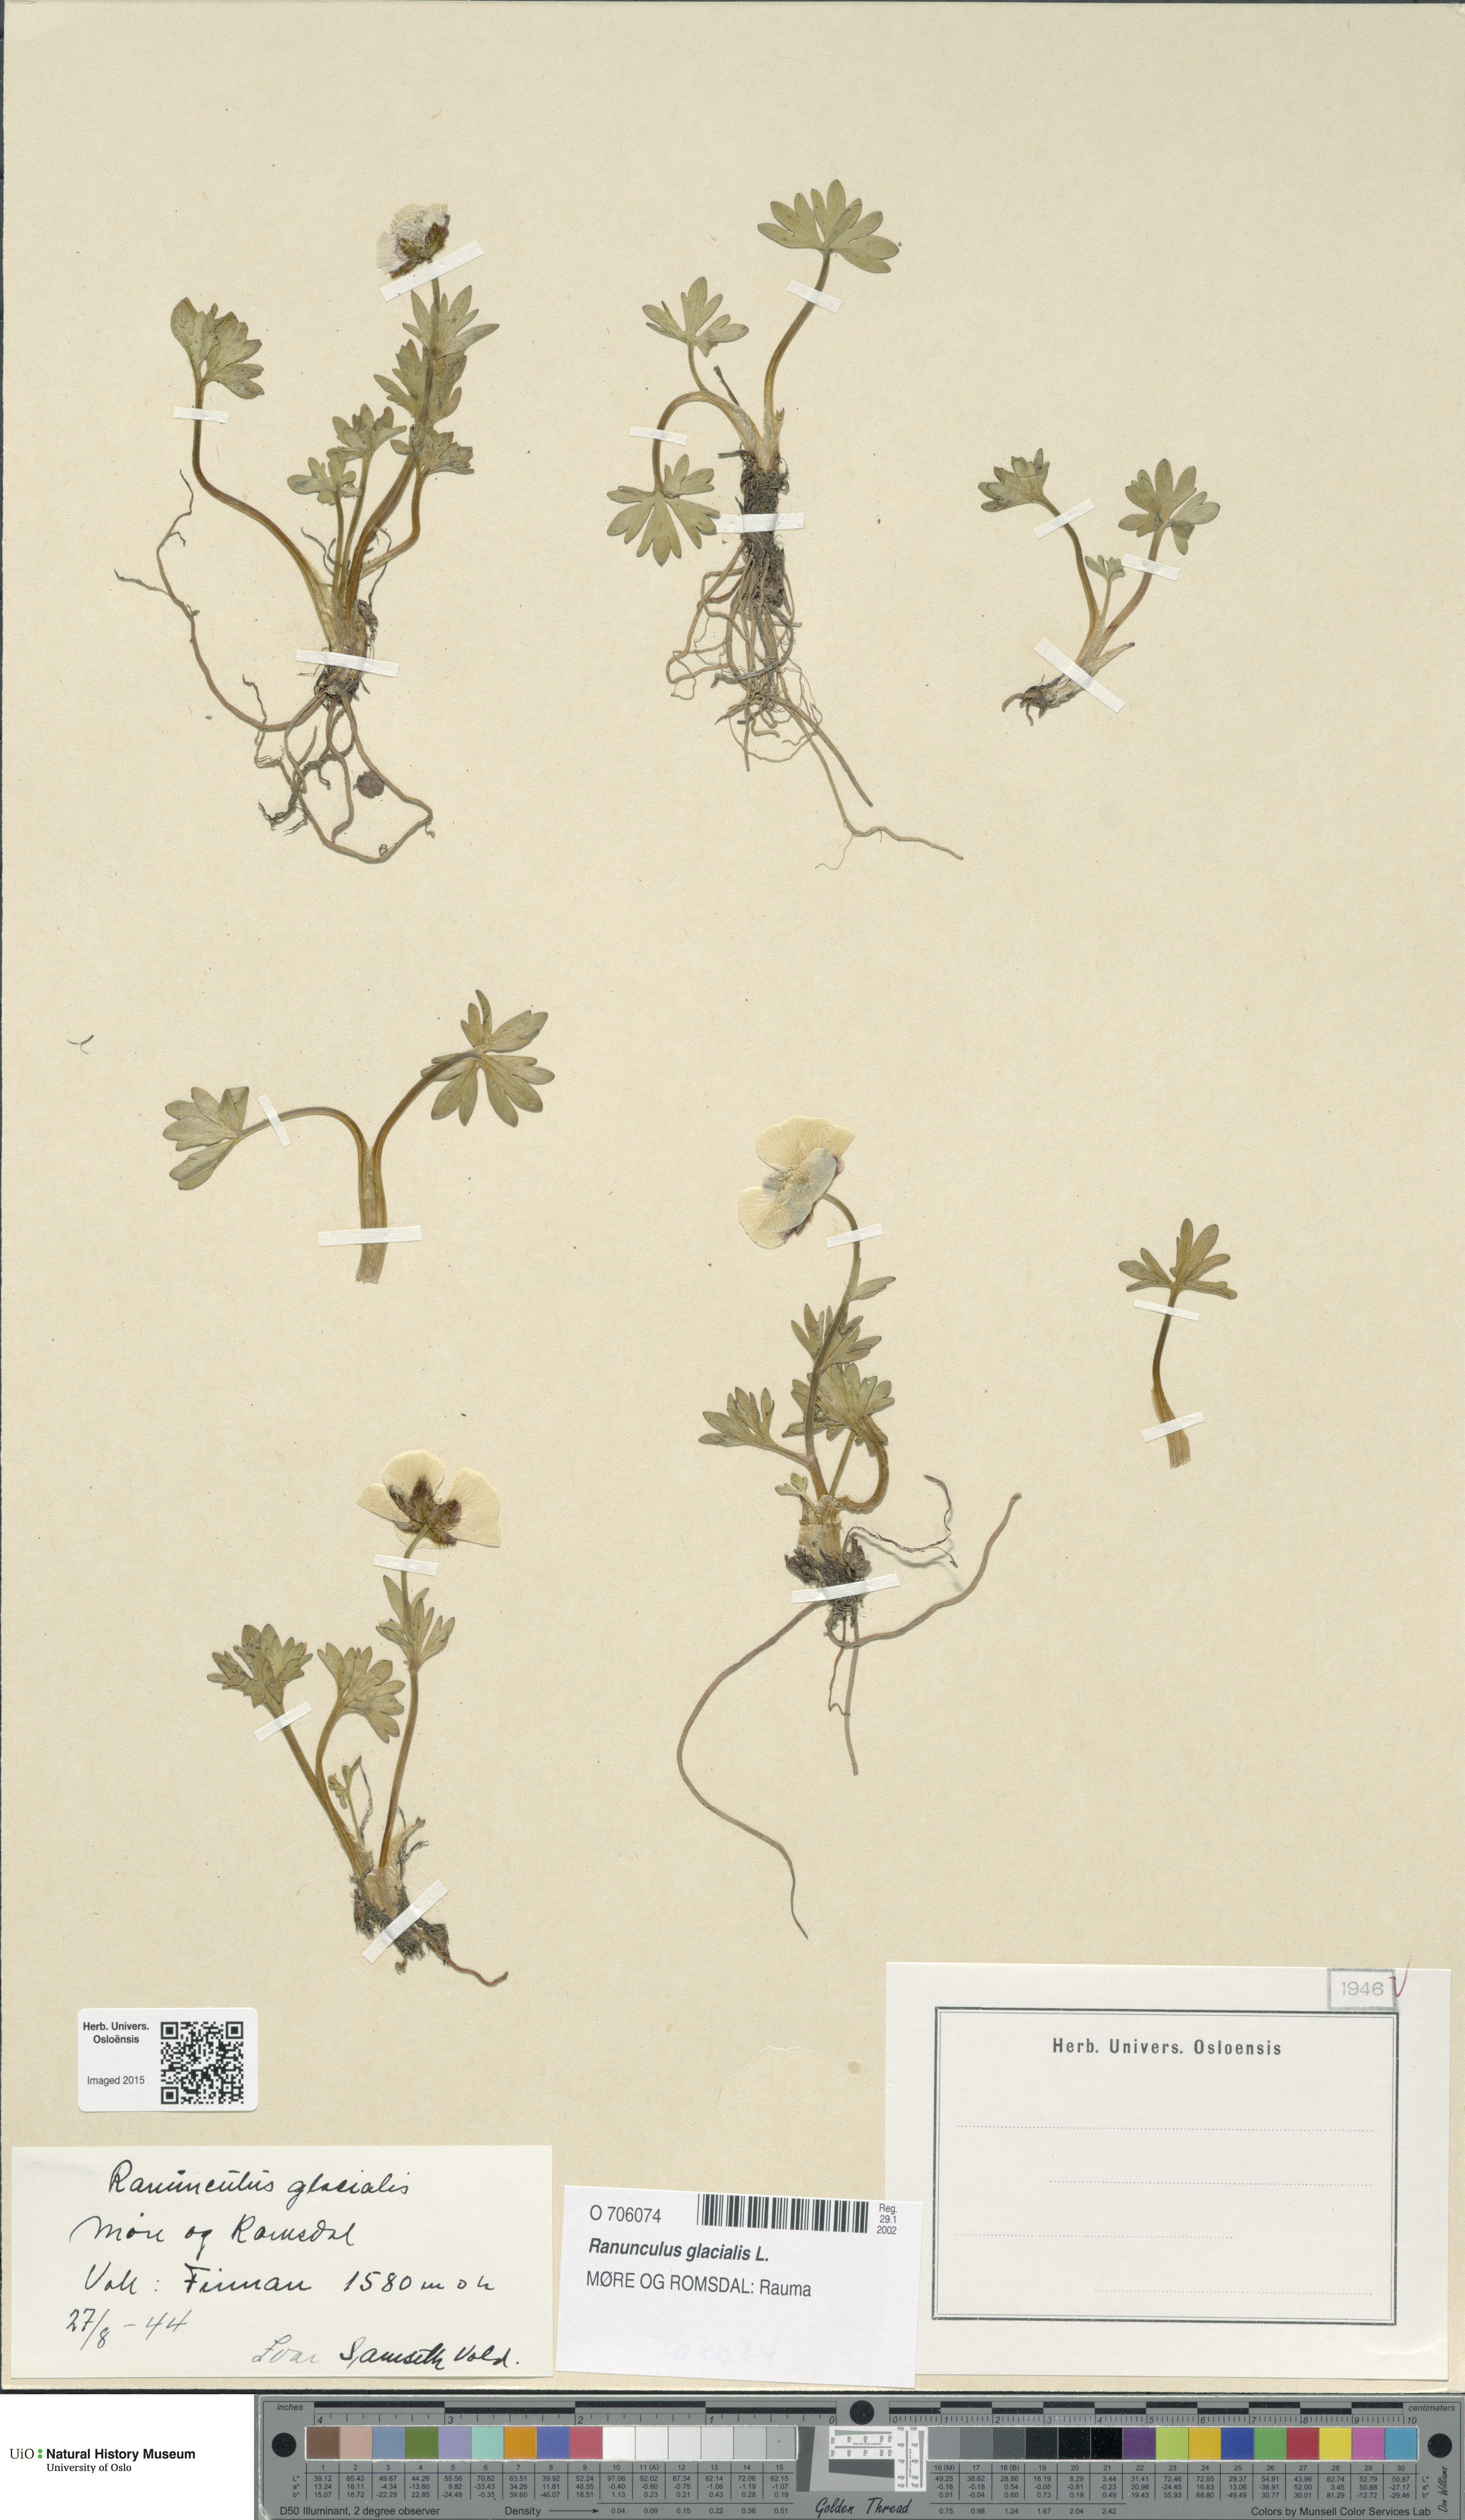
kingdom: Plantae
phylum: Tracheophyta
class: Magnoliopsida
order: Ranunculales
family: Ranunculaceae
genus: Ranunculus
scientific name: Ranunculus glacialis
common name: Glacier buttercup
